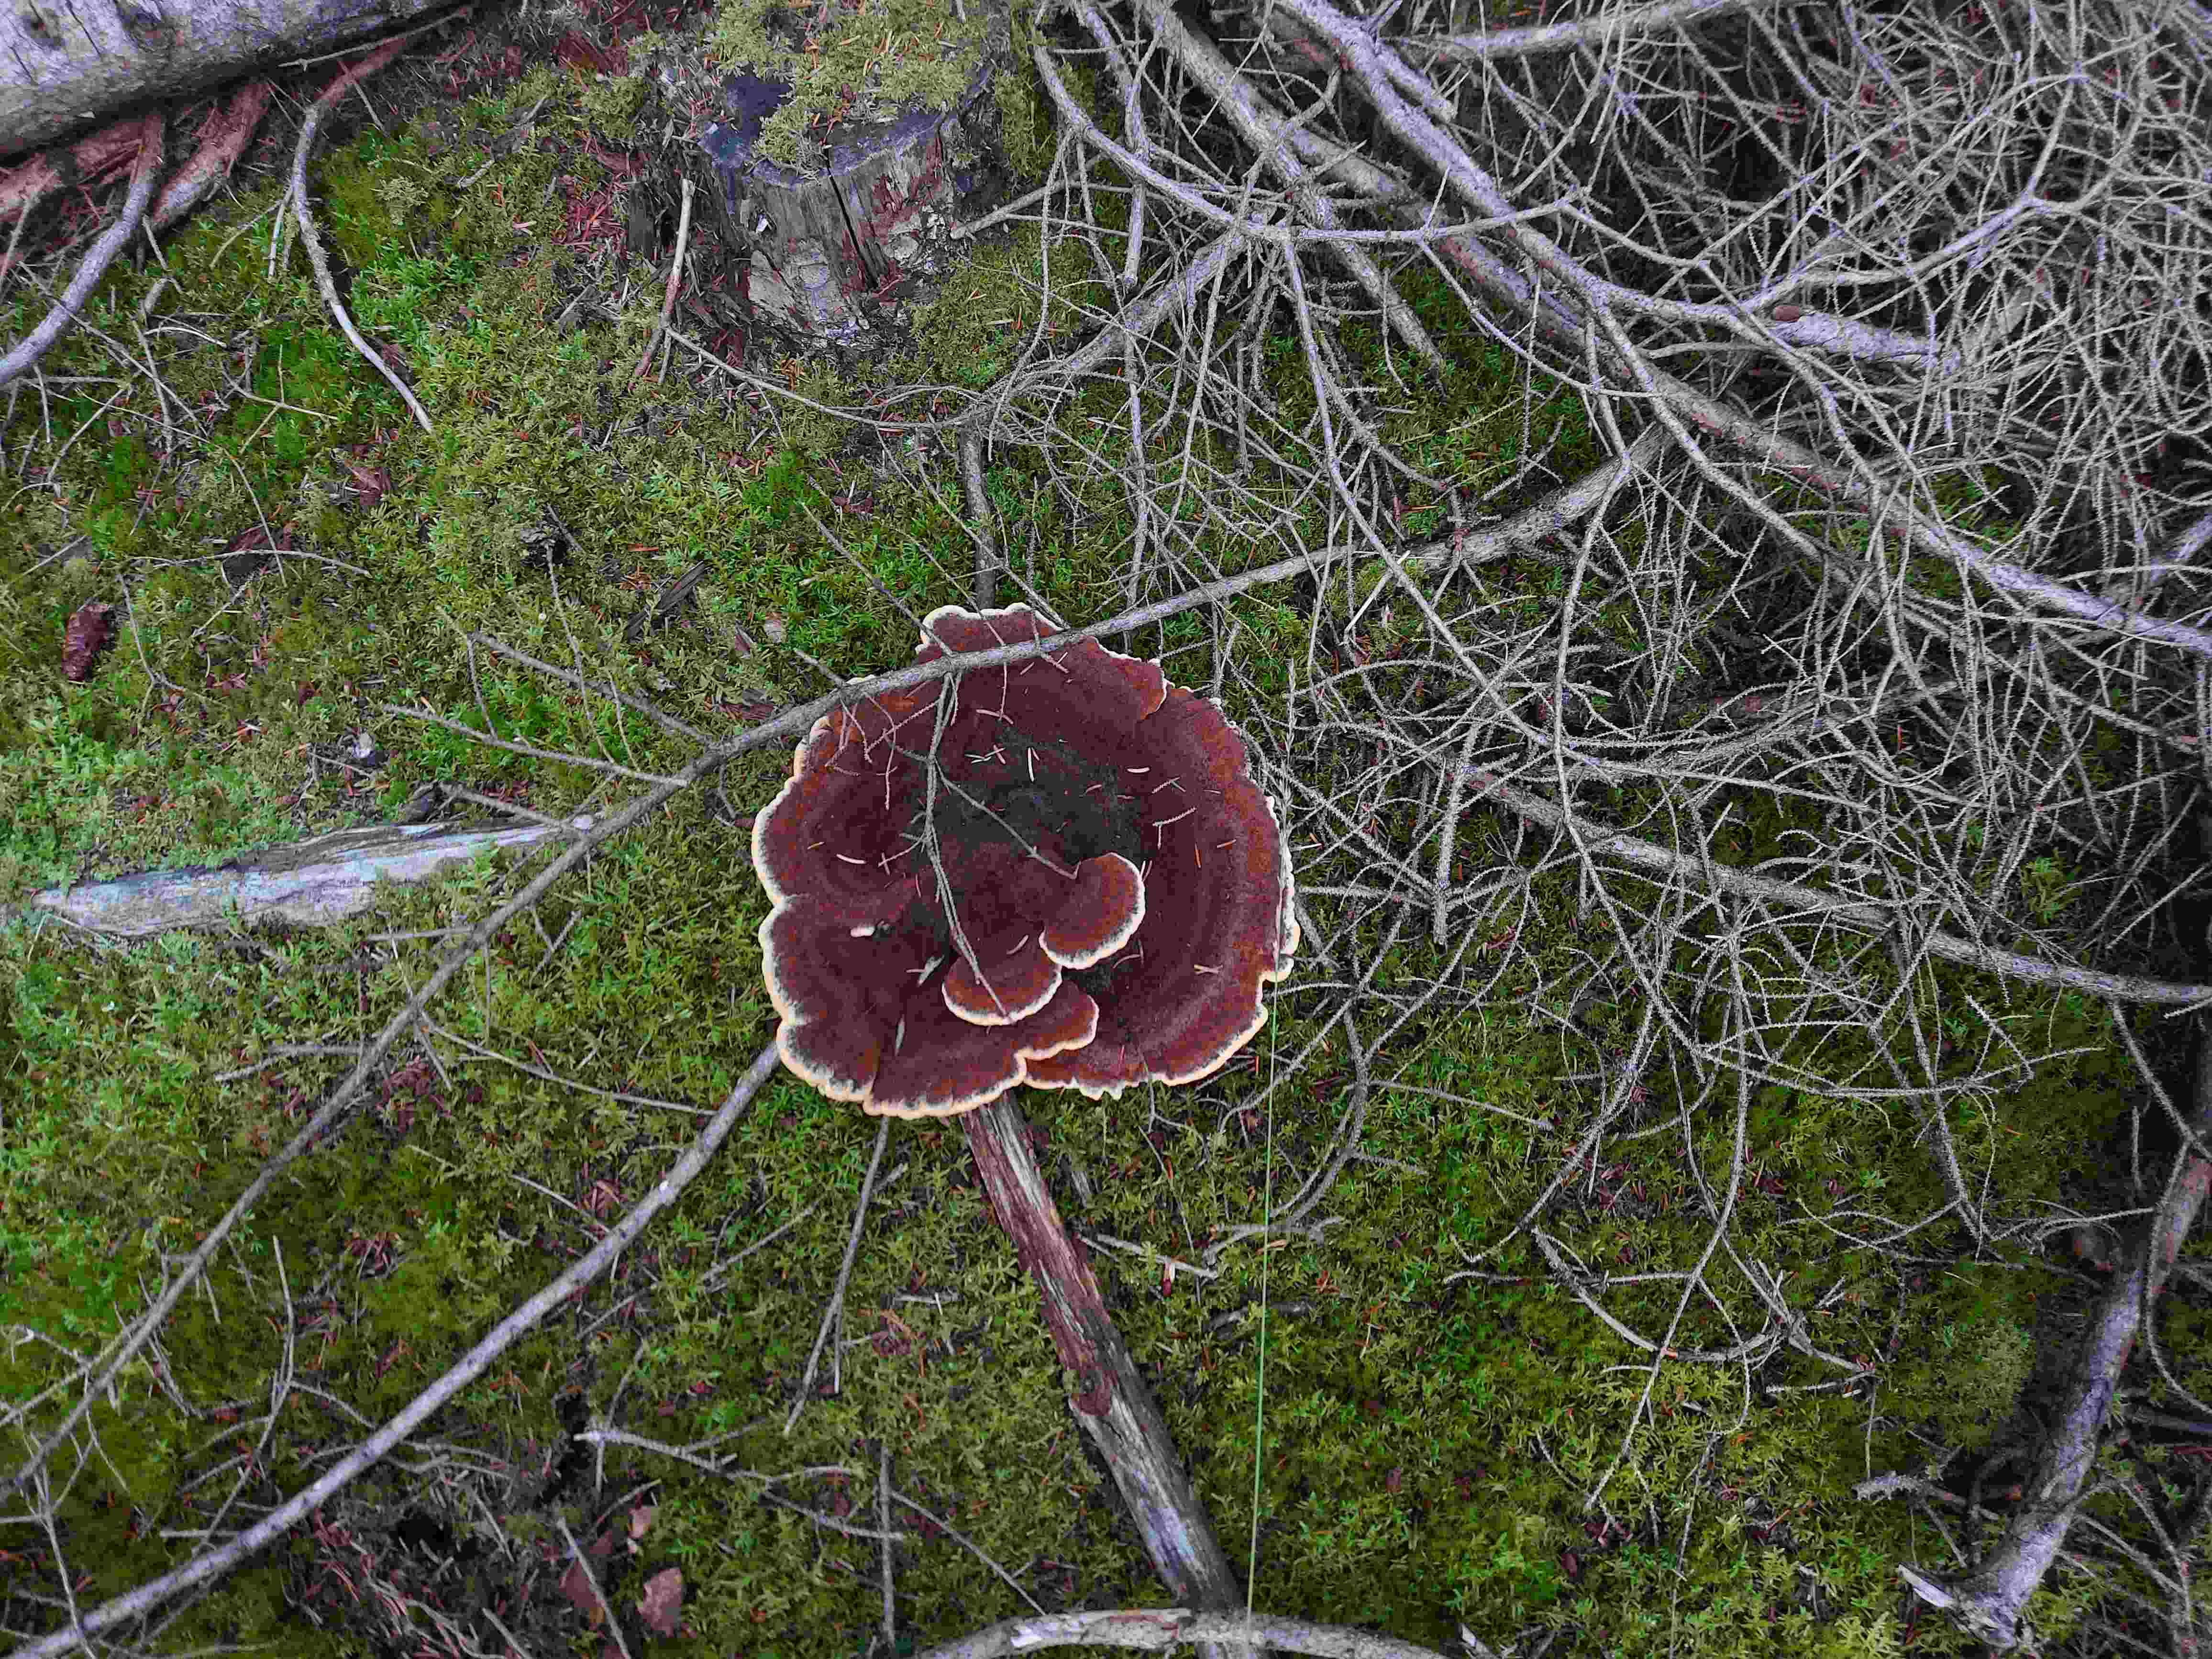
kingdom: Fungi
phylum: Basidiomycota
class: Agaricomycetes
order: Polyporales
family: Laetiporaceae
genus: Phaeolus
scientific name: Phaeolus schweinitzii
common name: brunporesvamp
